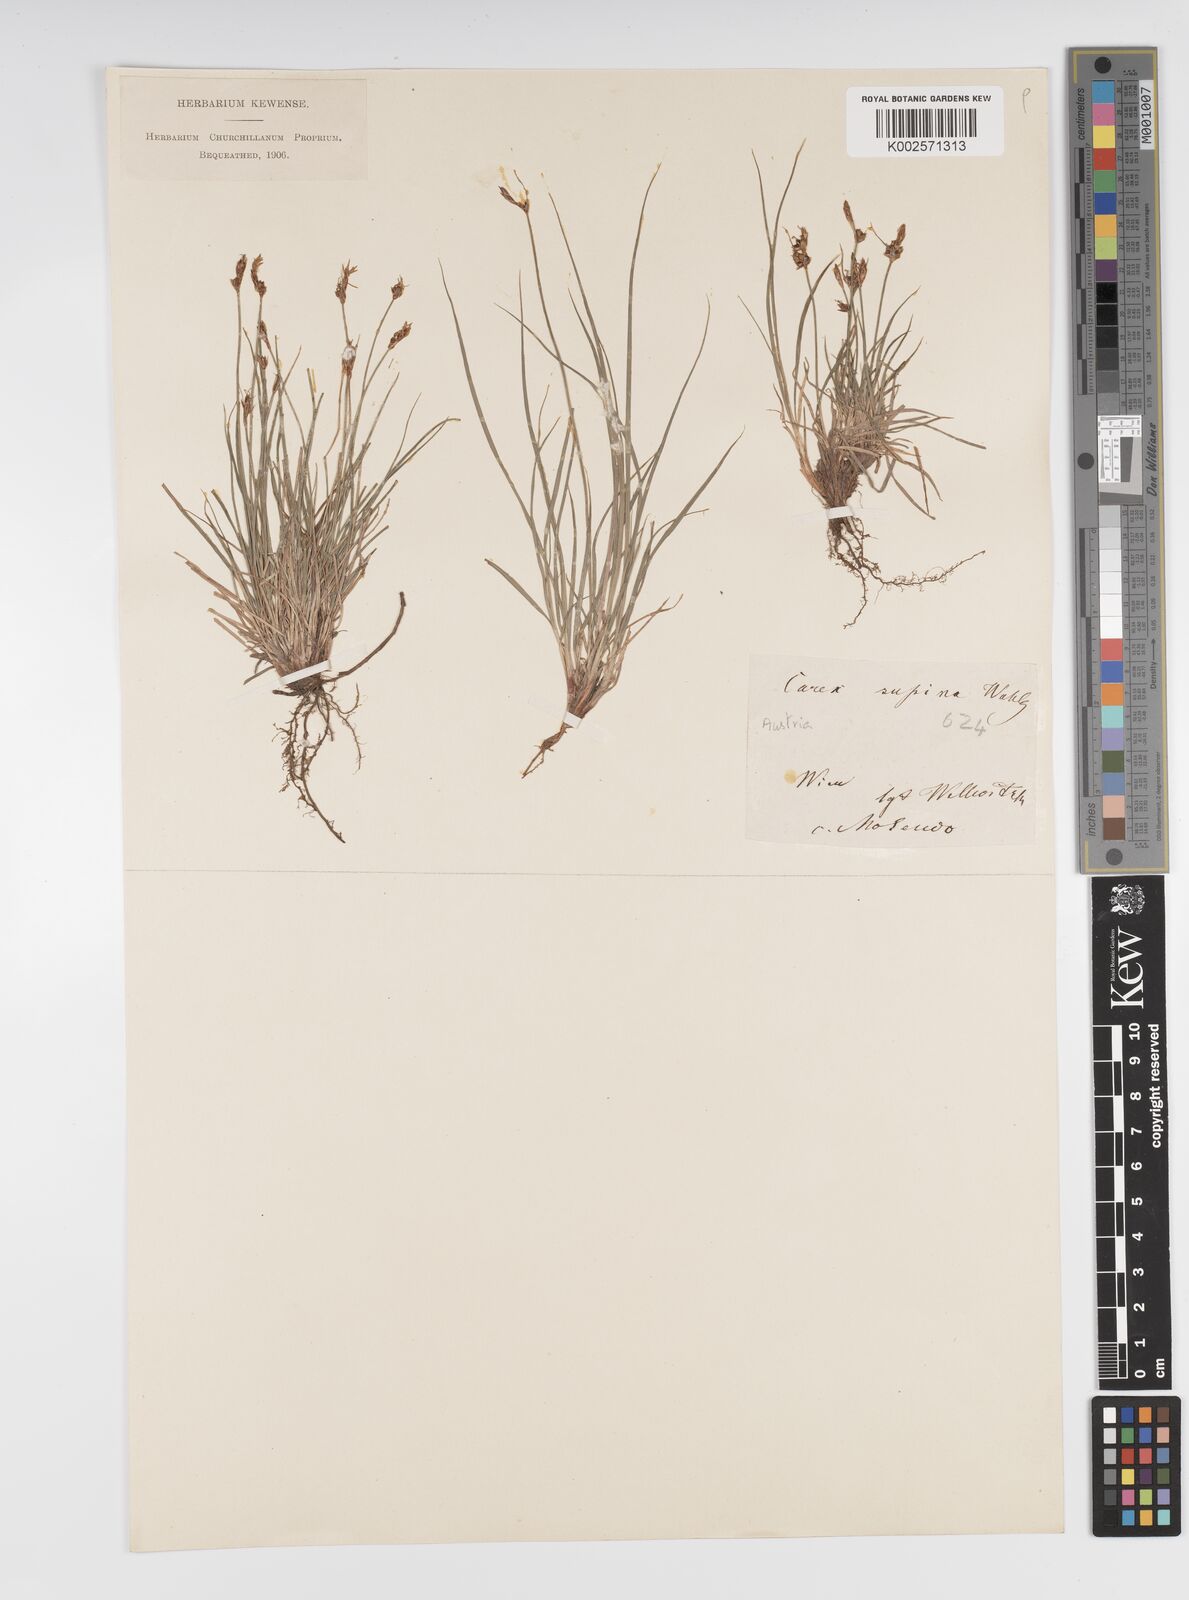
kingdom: Plantae
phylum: Tracheophyta
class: Liliopsida
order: Poales
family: Cyperaceae
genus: Carex
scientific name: Carex supina
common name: Lying-back sedge
